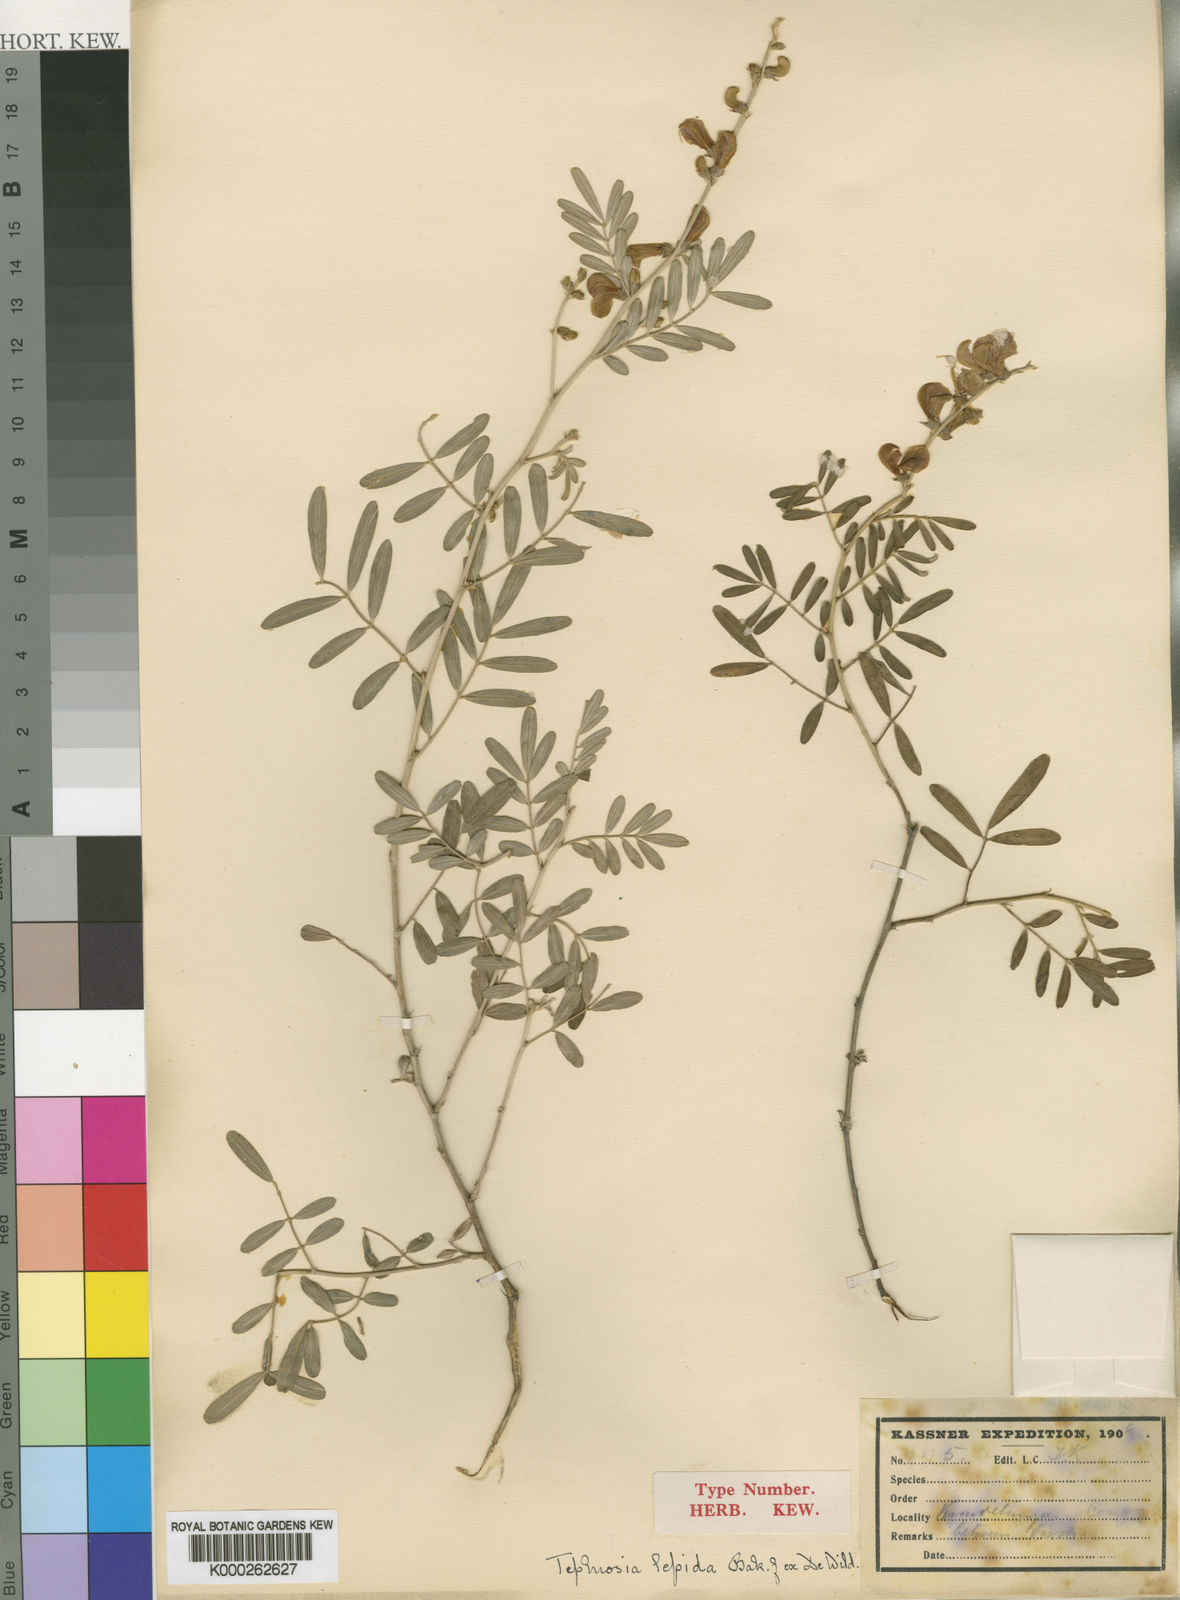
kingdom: Plantae
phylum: Tracheophyta
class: Magnoliopsida
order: Fabales
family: Fabaceae
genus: Tephrosia
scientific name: Tephrosia lepida
